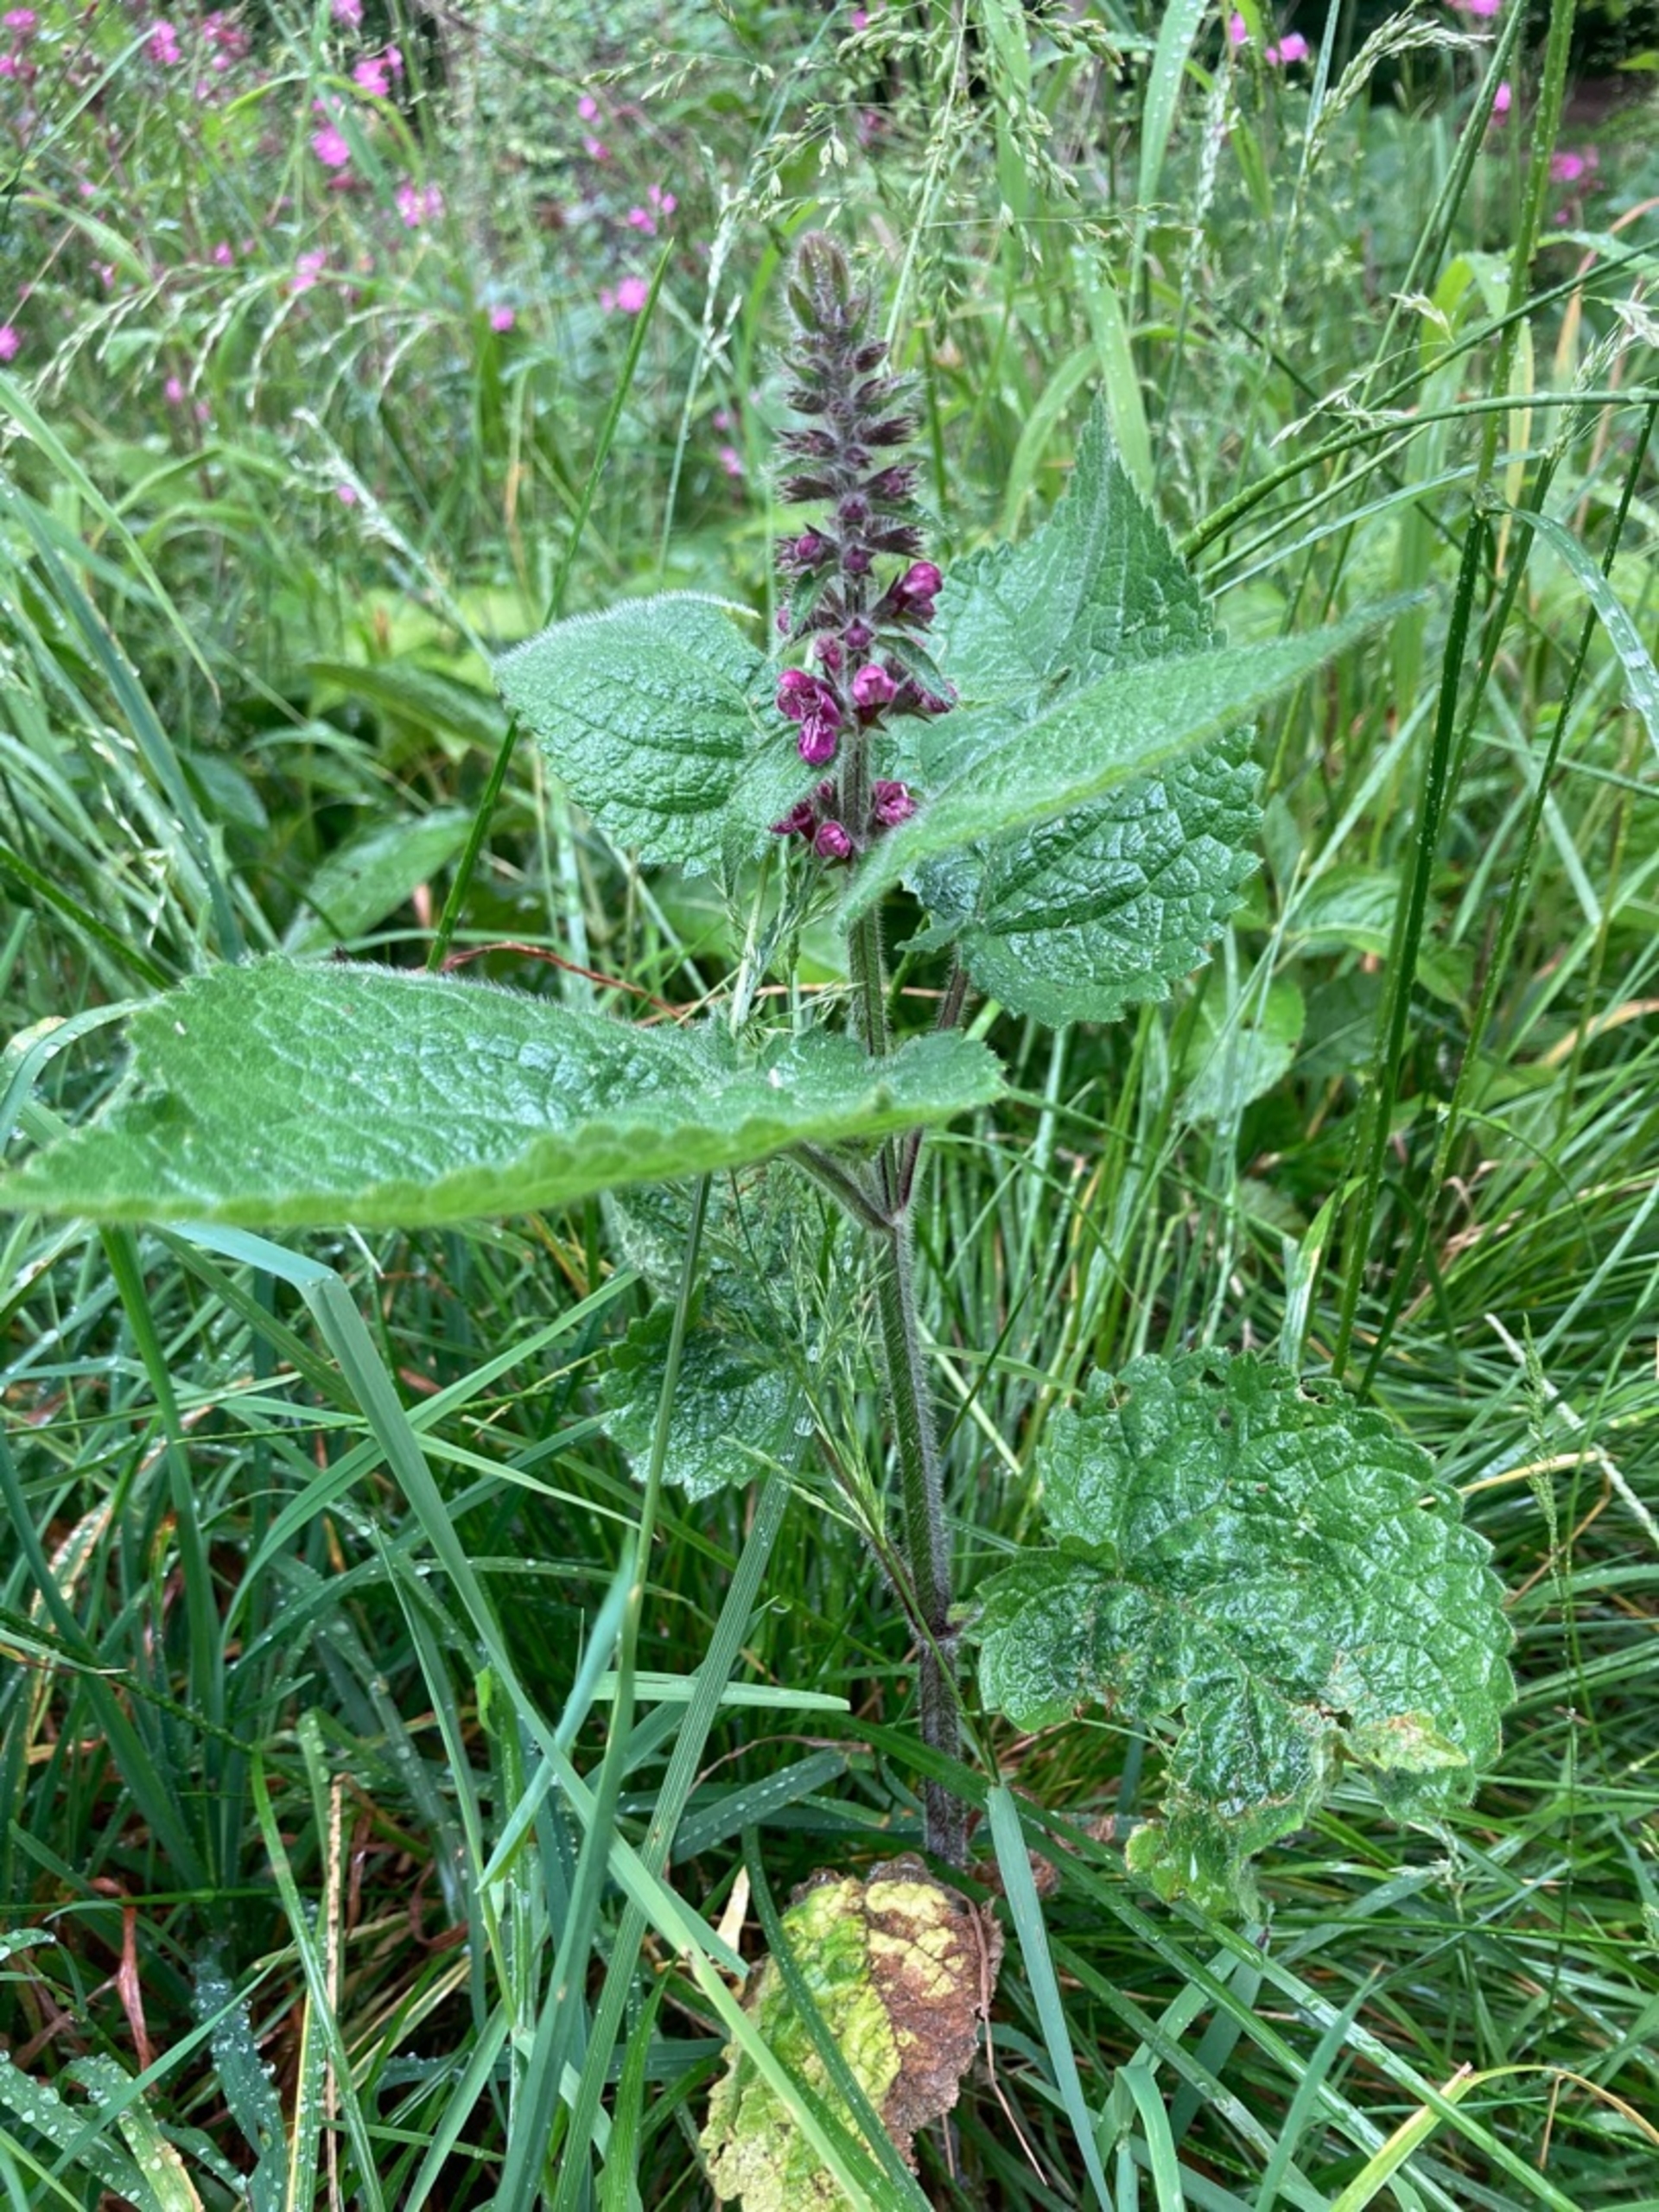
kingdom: Plantae
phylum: Tracheophyta
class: Magnoliopsida
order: Lamiales
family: Lamiaceae
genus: Stachys
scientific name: Stachys sylvatica
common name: Skov-galtetand
